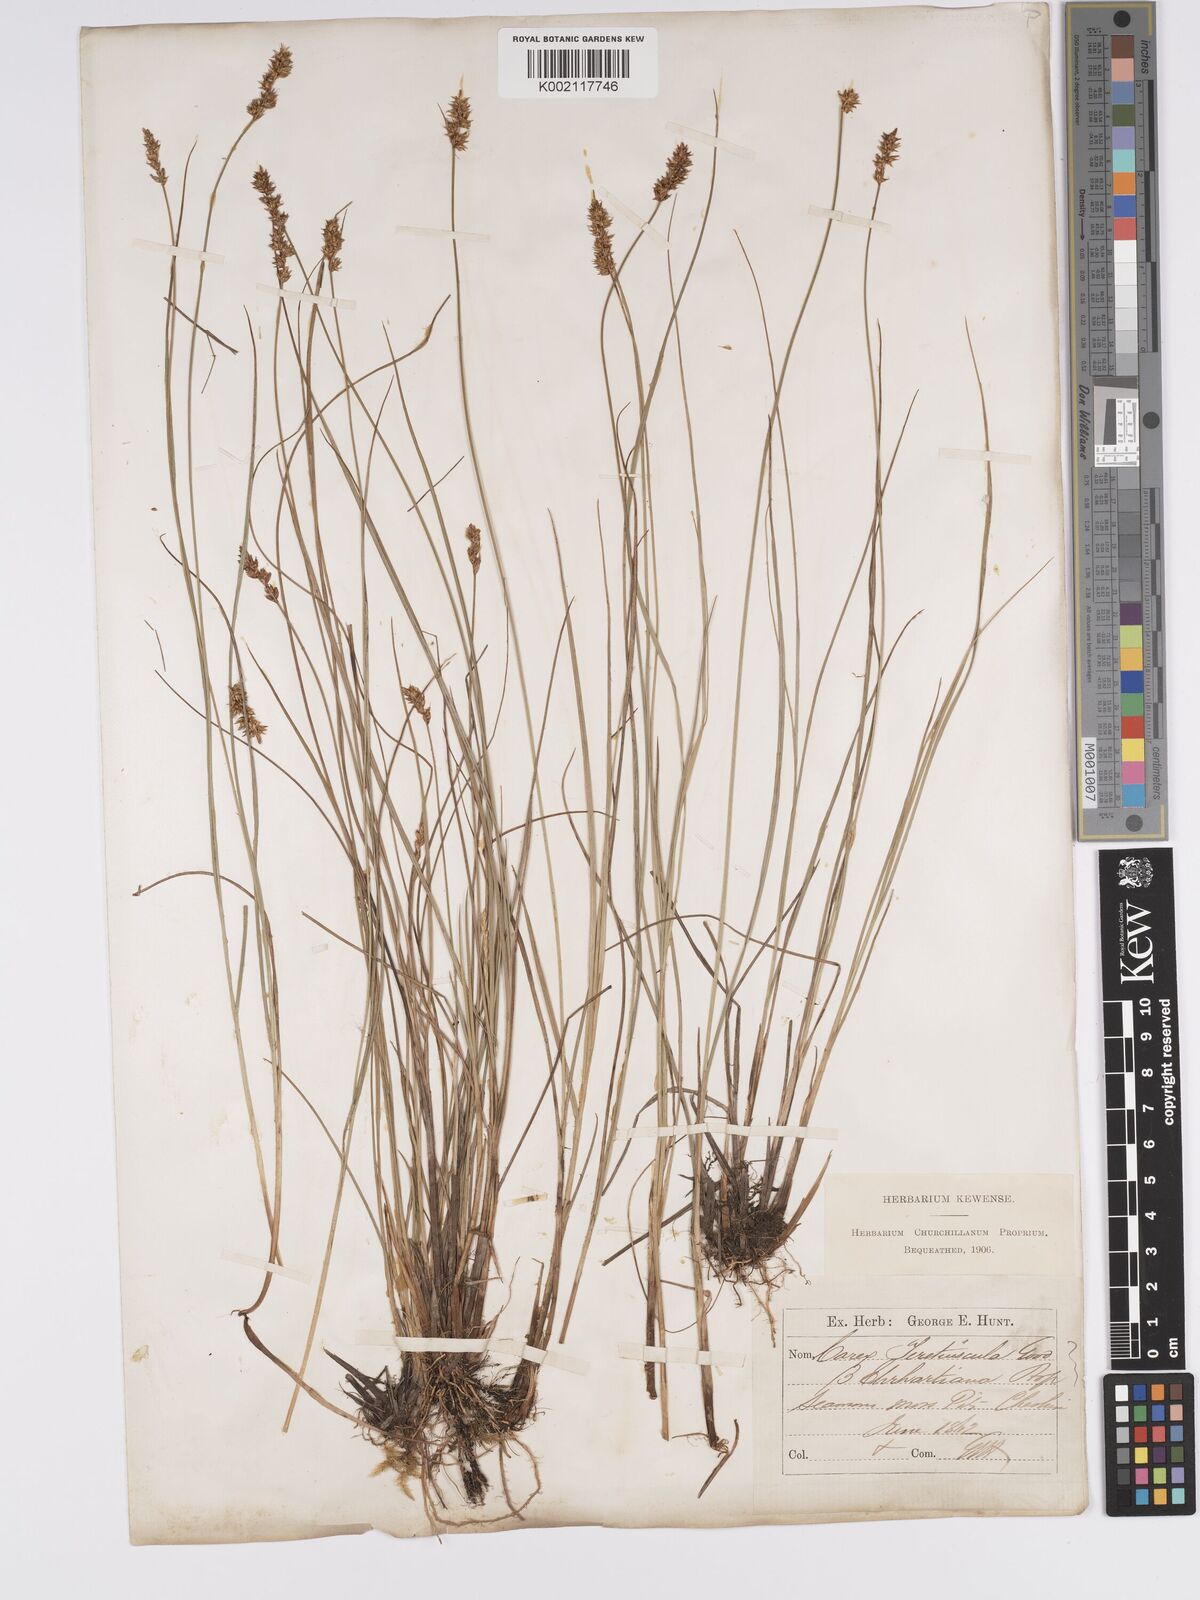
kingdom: Plantae
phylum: Tracheophyta
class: Liliopsida
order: Poales
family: Cyperaceae
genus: Carex
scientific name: Carex diandra
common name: Lesser tussock-sedge
